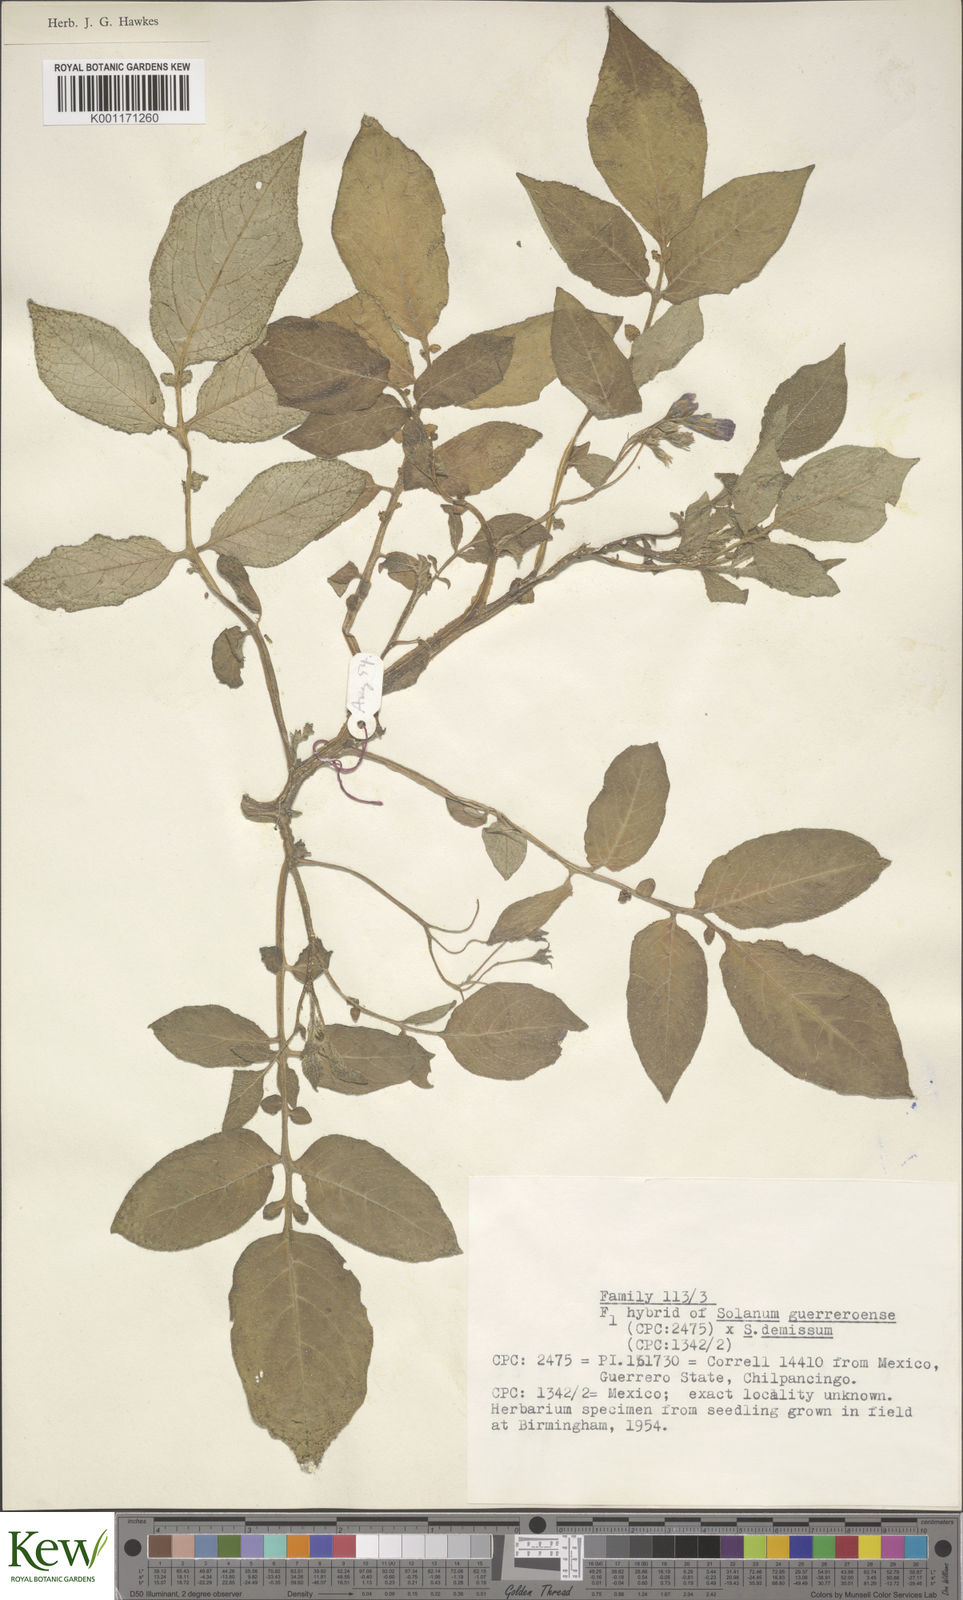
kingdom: Plantae
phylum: Tracheophyta
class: Magnoliopsida
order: Solanales
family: Solanaceae
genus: Solanum
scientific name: Solanum guerreroense
